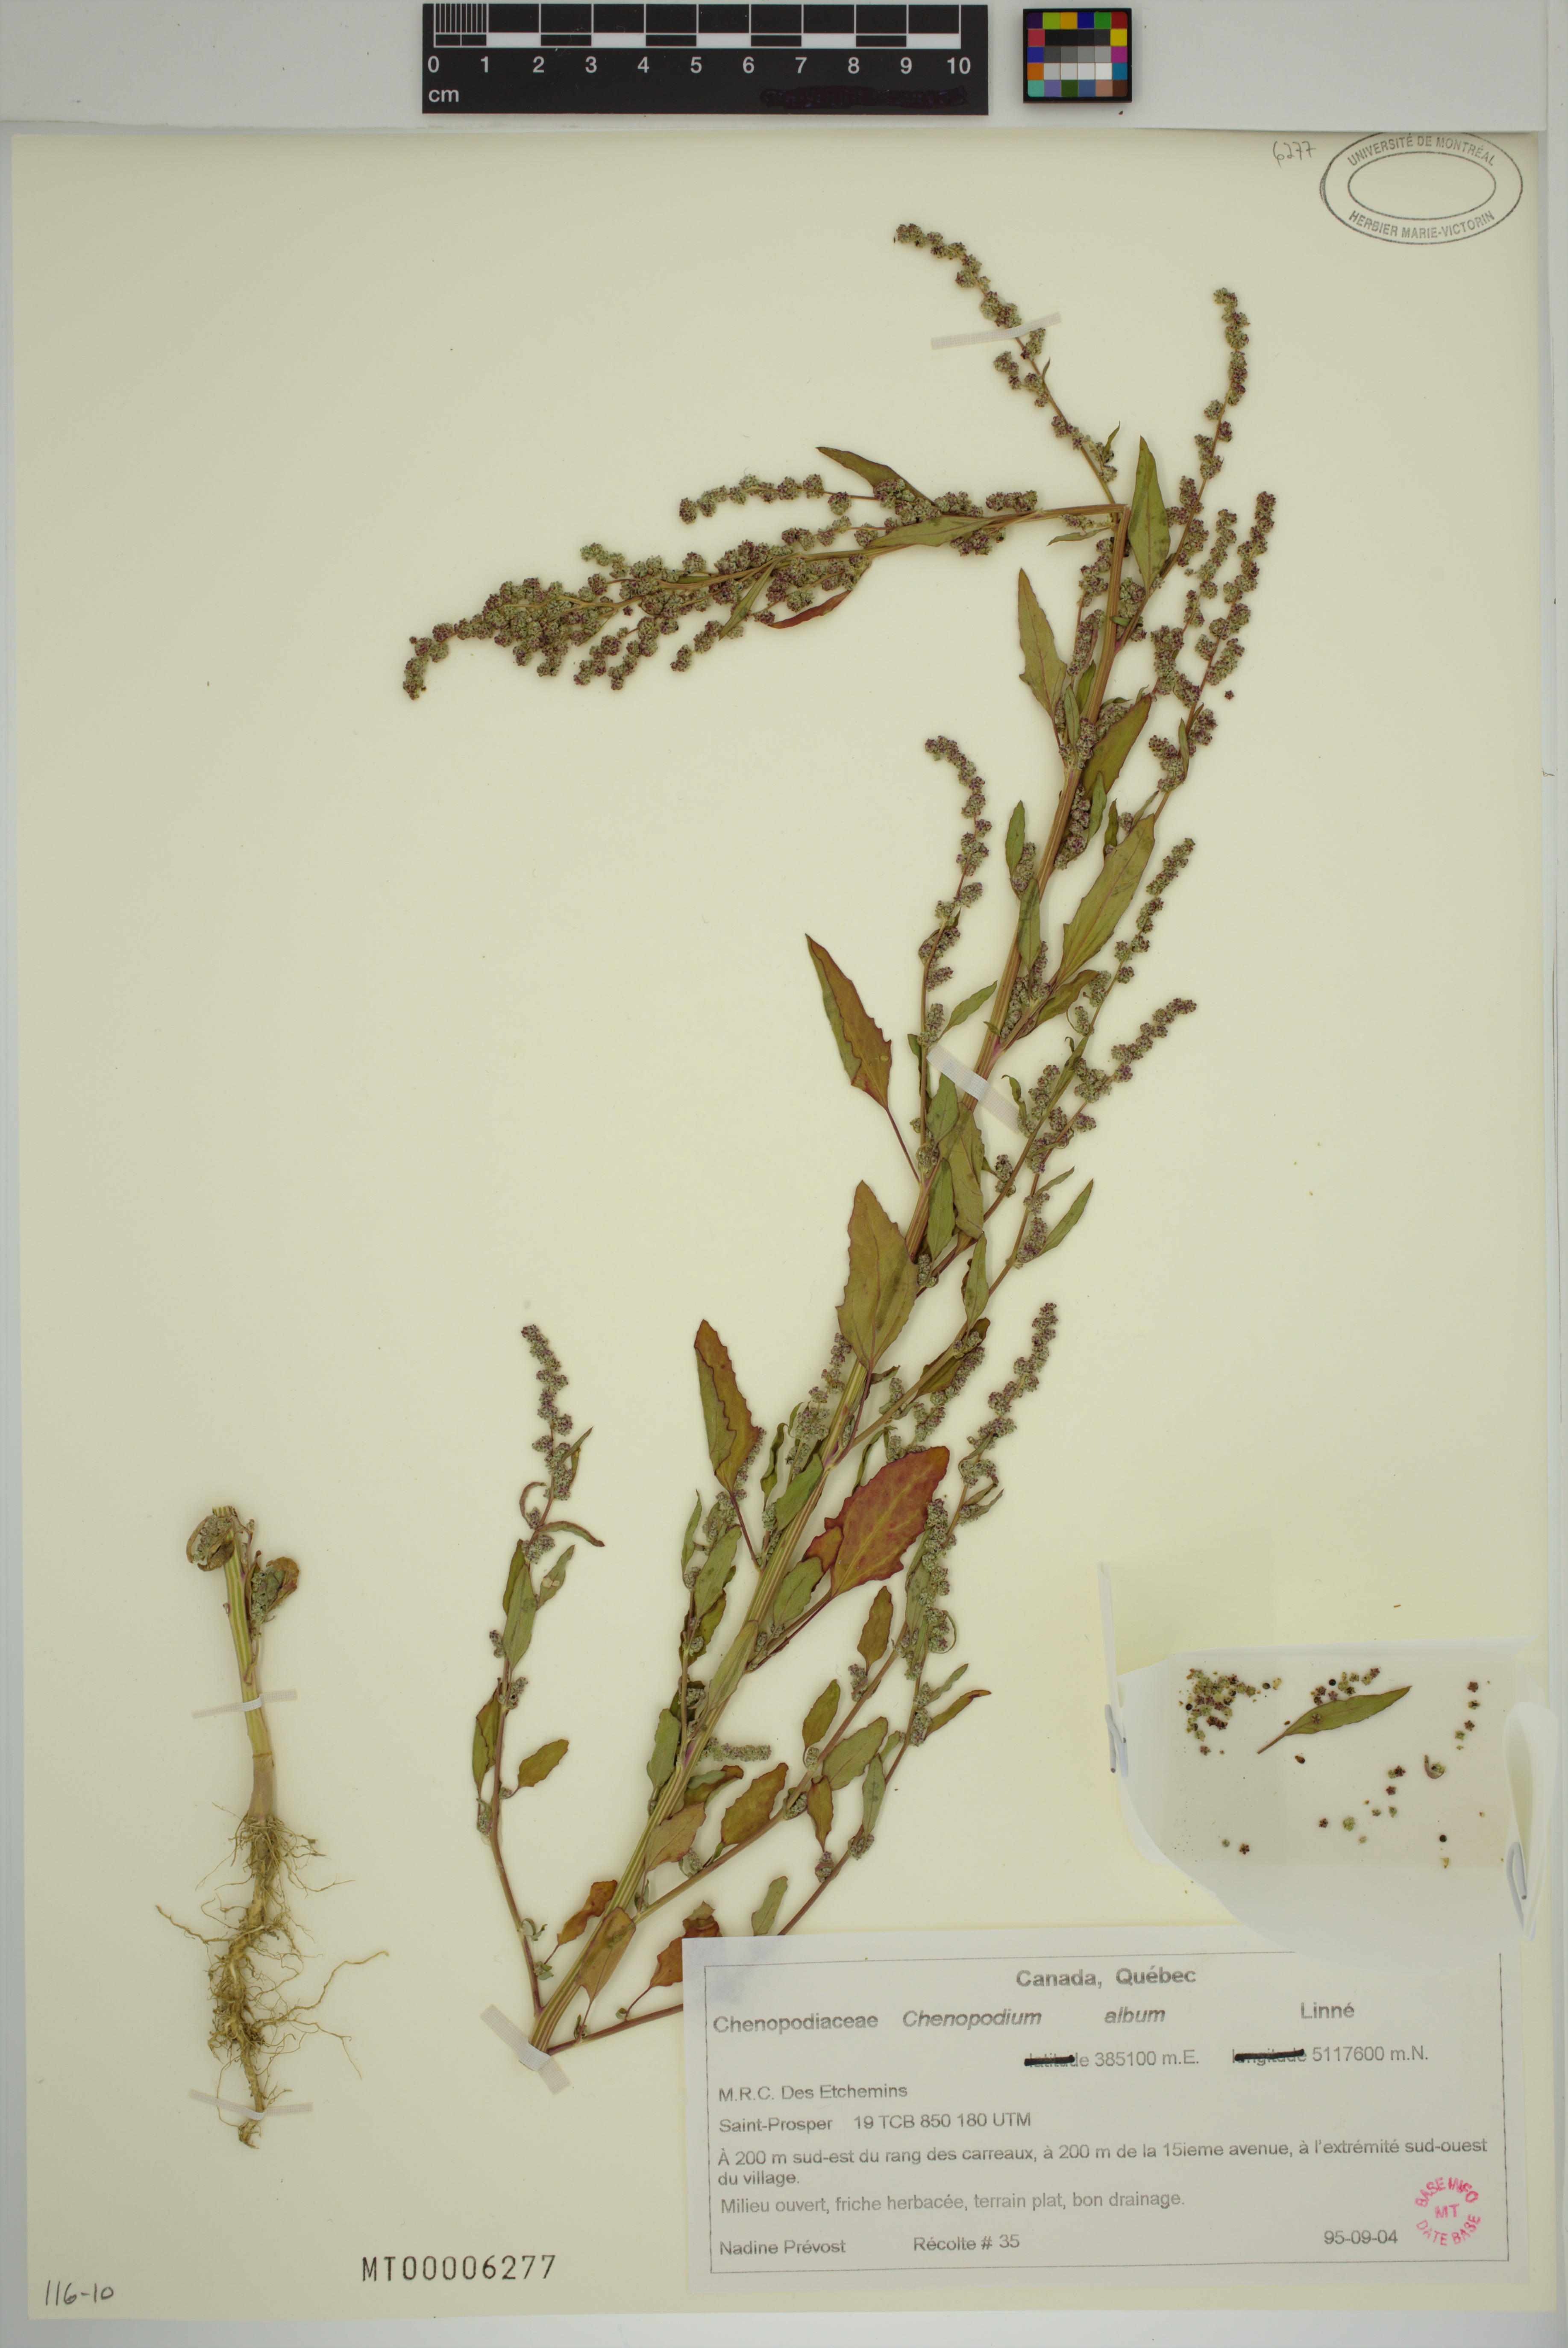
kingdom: Plantae
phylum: Tracheophyta
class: Magnoliopsida
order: Caryophyllales
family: Amaranthaceae
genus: Chenopodium
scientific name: Chenopodium album
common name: Fat-hen
